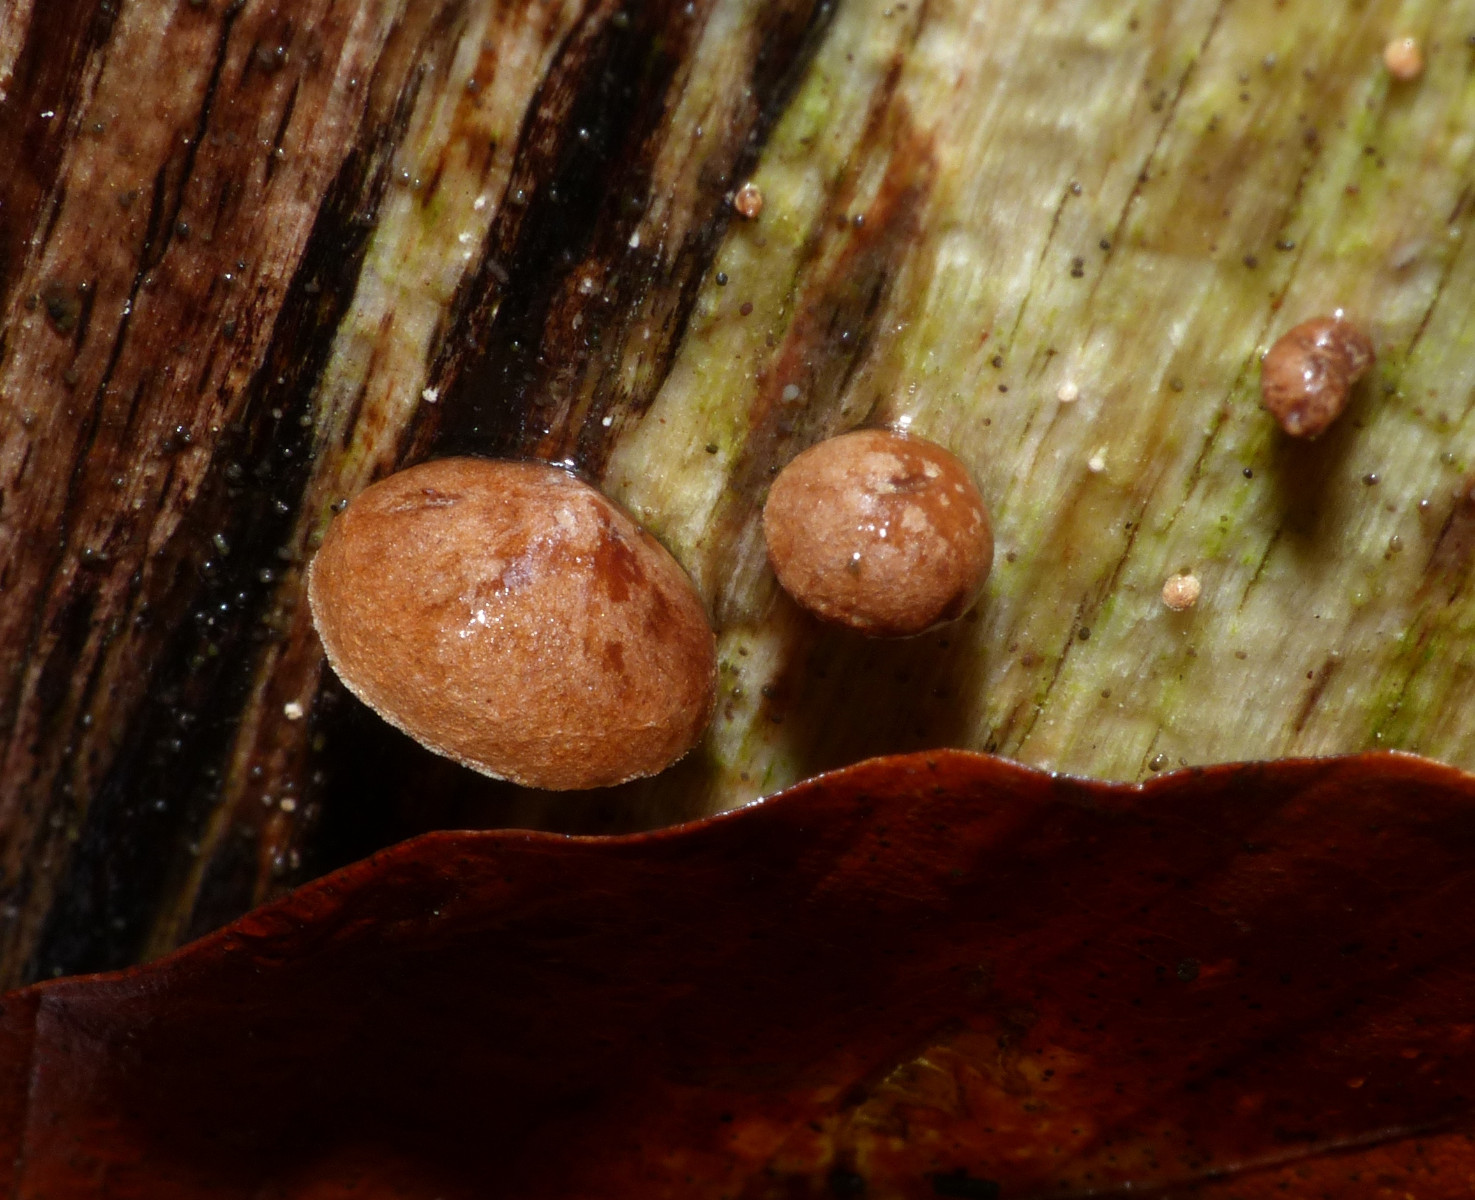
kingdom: Fungi
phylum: Basidiomycota
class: Agaricomycetes
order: Agaricales
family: Strophariaceae
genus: Deconica
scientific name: Deconica horizontalis
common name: ved-stråhat
